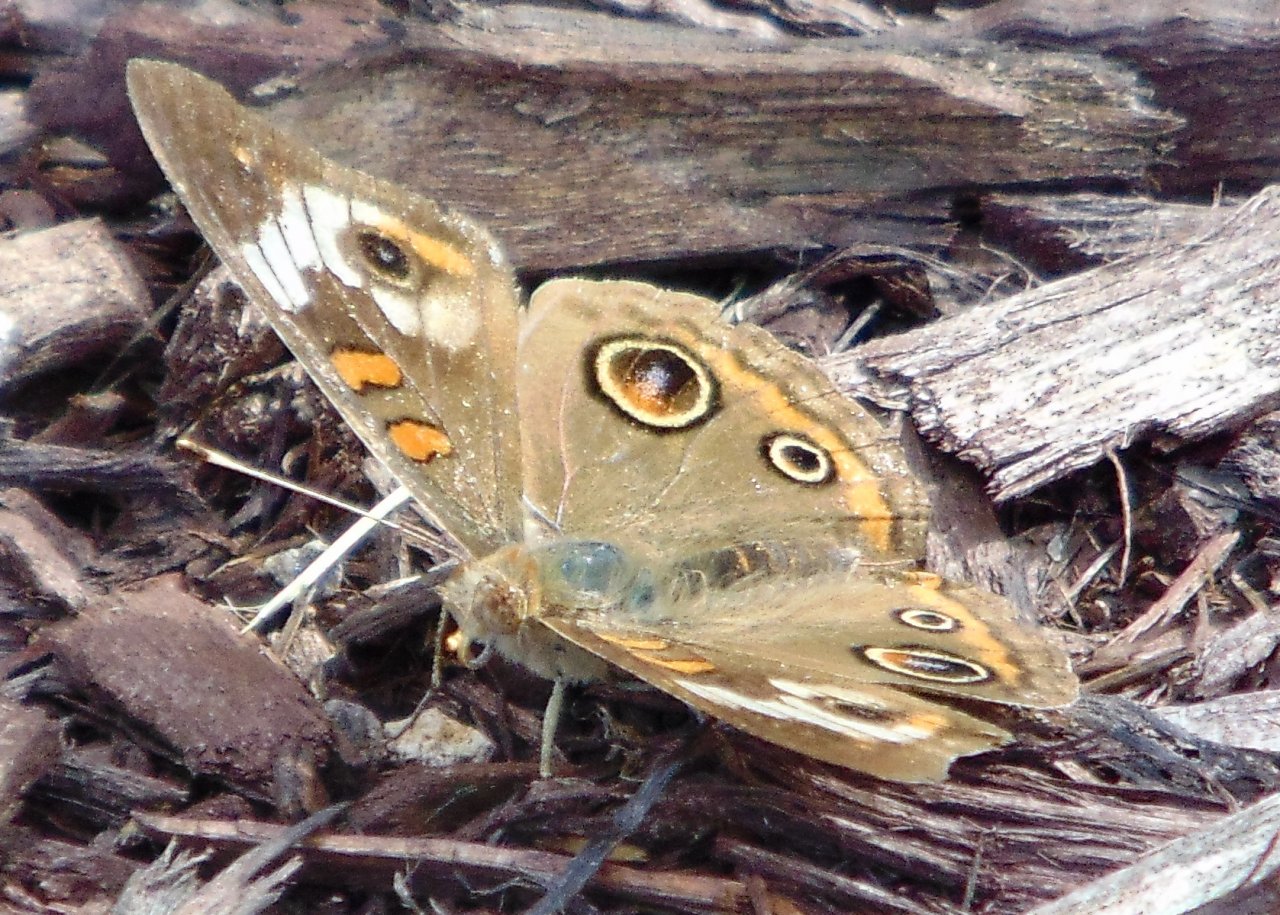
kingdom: Animalia
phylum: Arthropoda
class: Insecta
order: Lepidoptera
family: Nymphalidae
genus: Junonia
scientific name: Junonia coenia
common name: Common Buckeye
